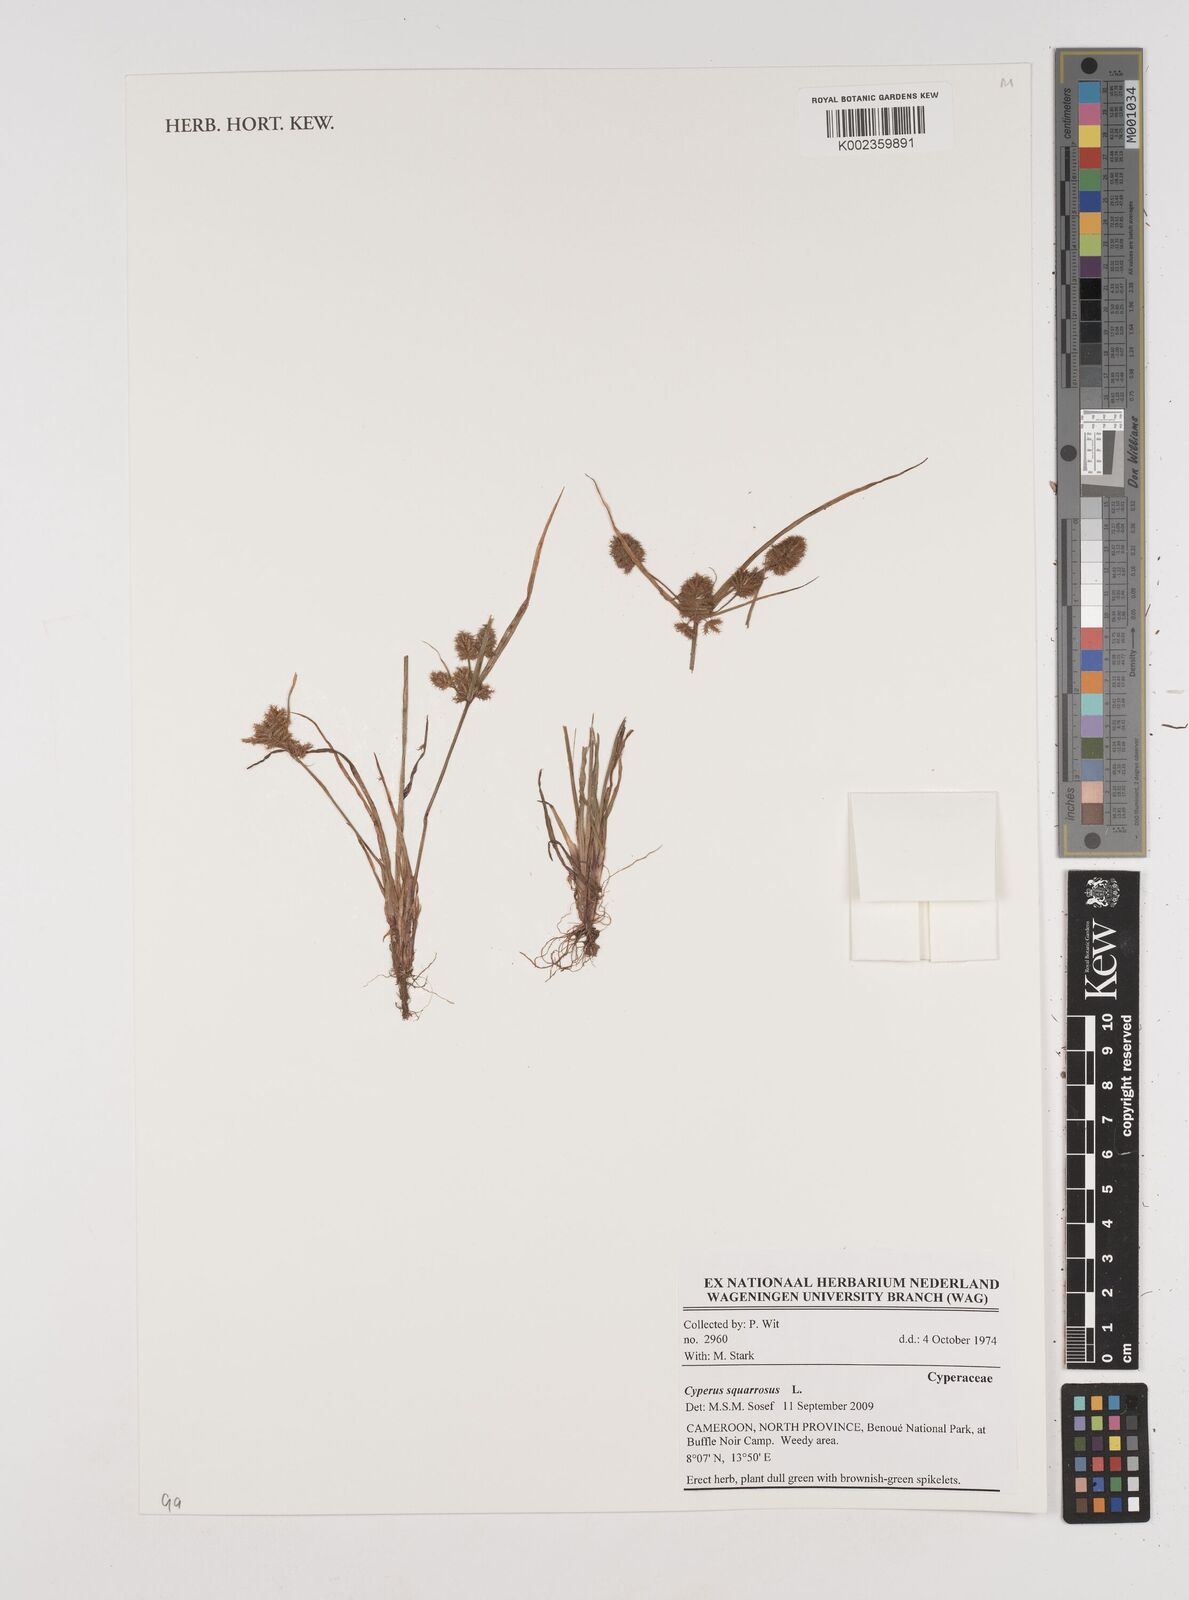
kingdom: Plantae
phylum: Tracheophyta
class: Liliopsida
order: Poales
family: Cyperaceae
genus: Cyperus
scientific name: Cyperus squarrosus
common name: Awned cyperus
